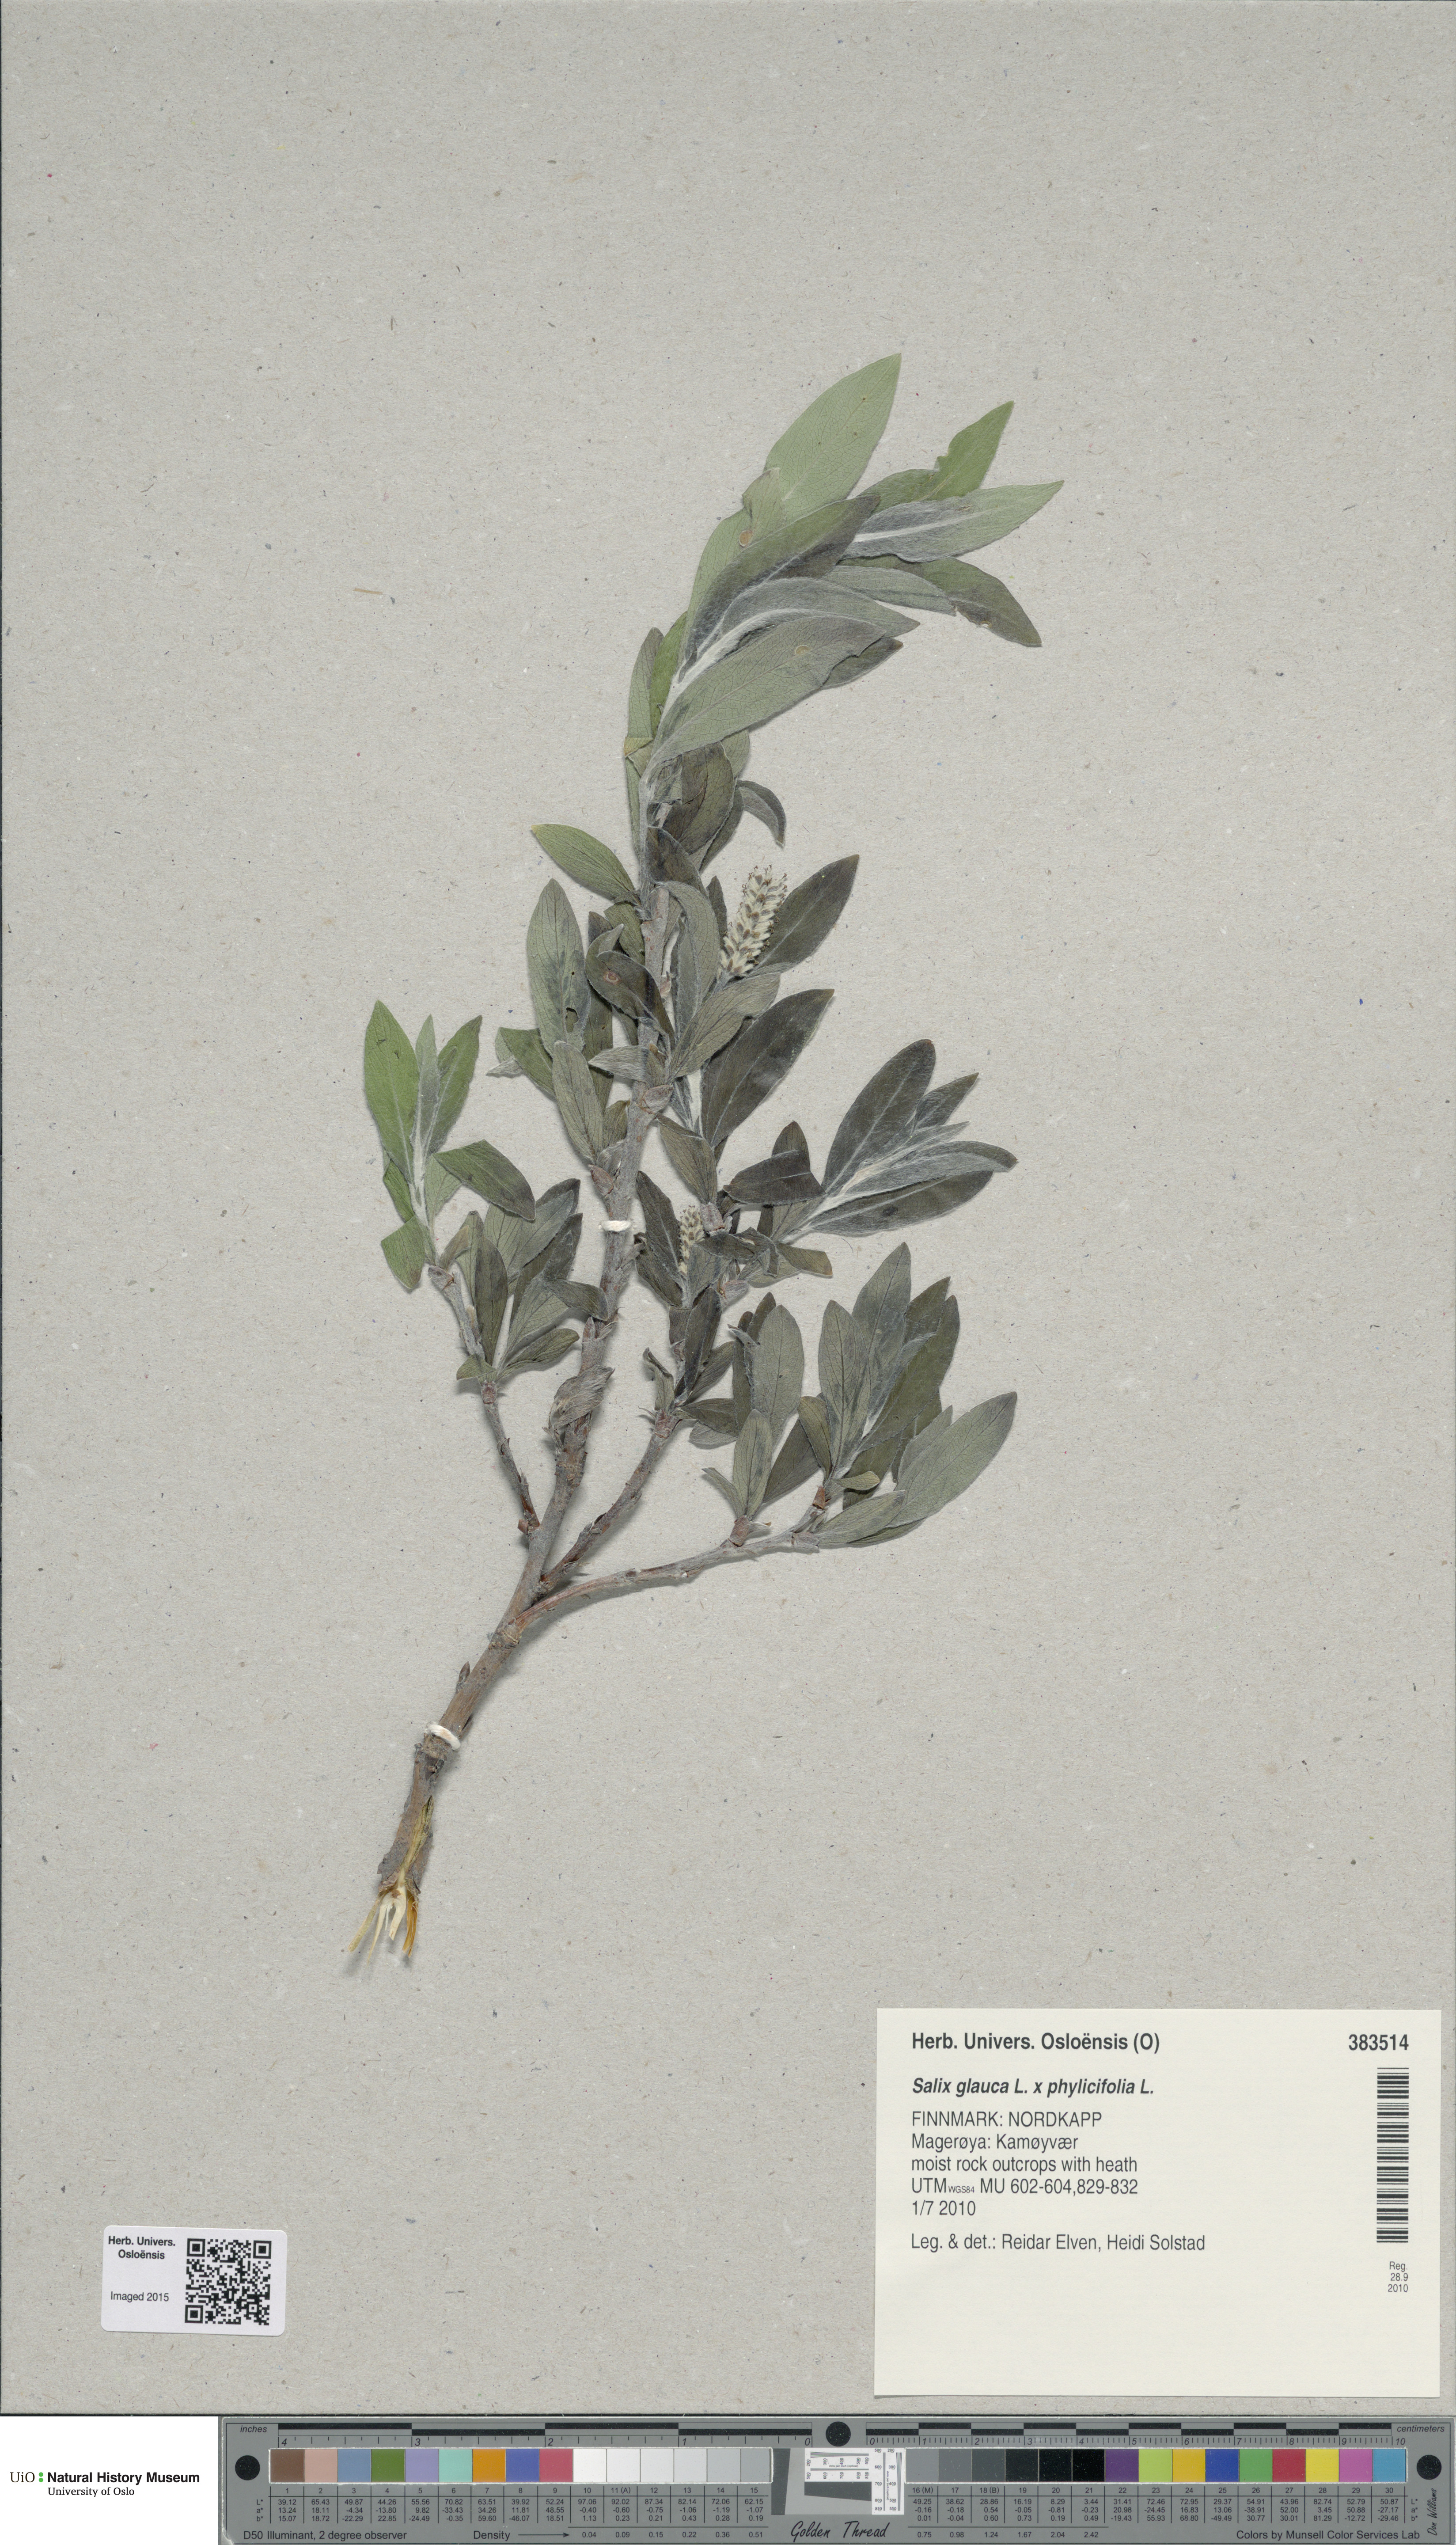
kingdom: Plantae
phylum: Tracheophyta
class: Magnoliopsida
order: Malpighiales
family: Salicaceae
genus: Salix
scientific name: Salix
